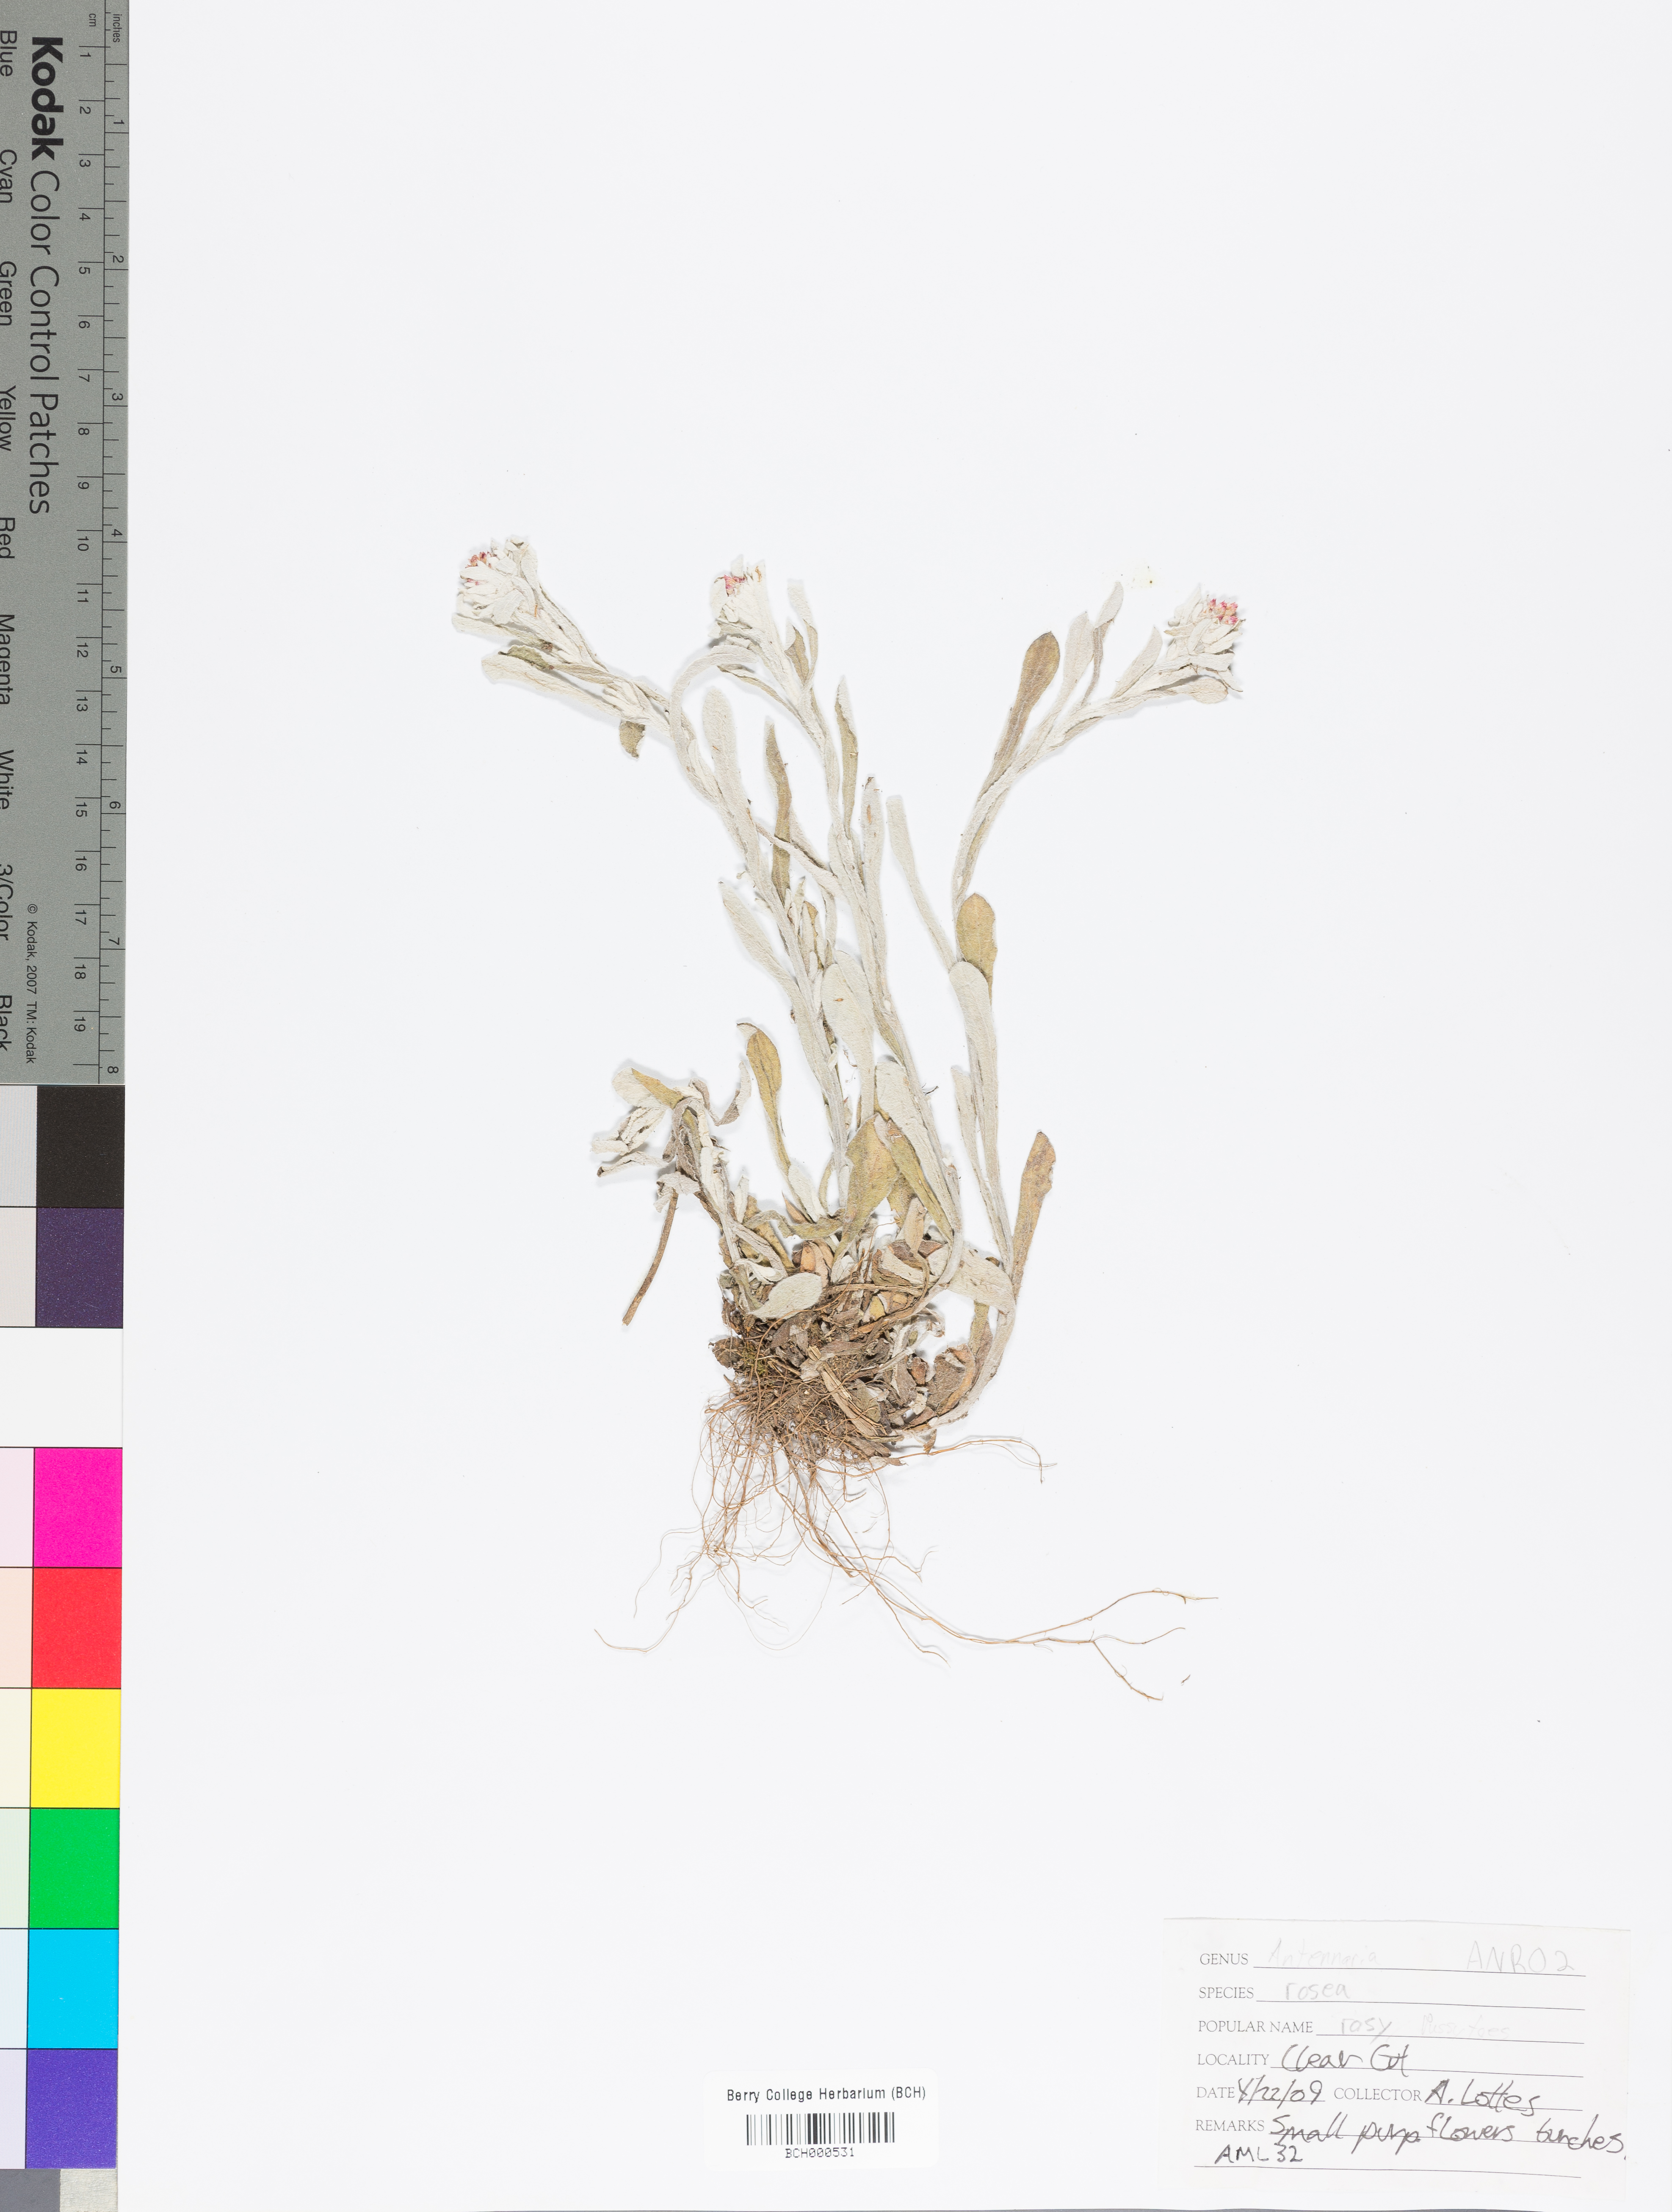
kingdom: Plantae
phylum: Tracheophyta
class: Magnoliopsida
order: Asterales
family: Asteraceae
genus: Antennaria
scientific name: Antennaria rosea
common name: Rosy pussytoes
